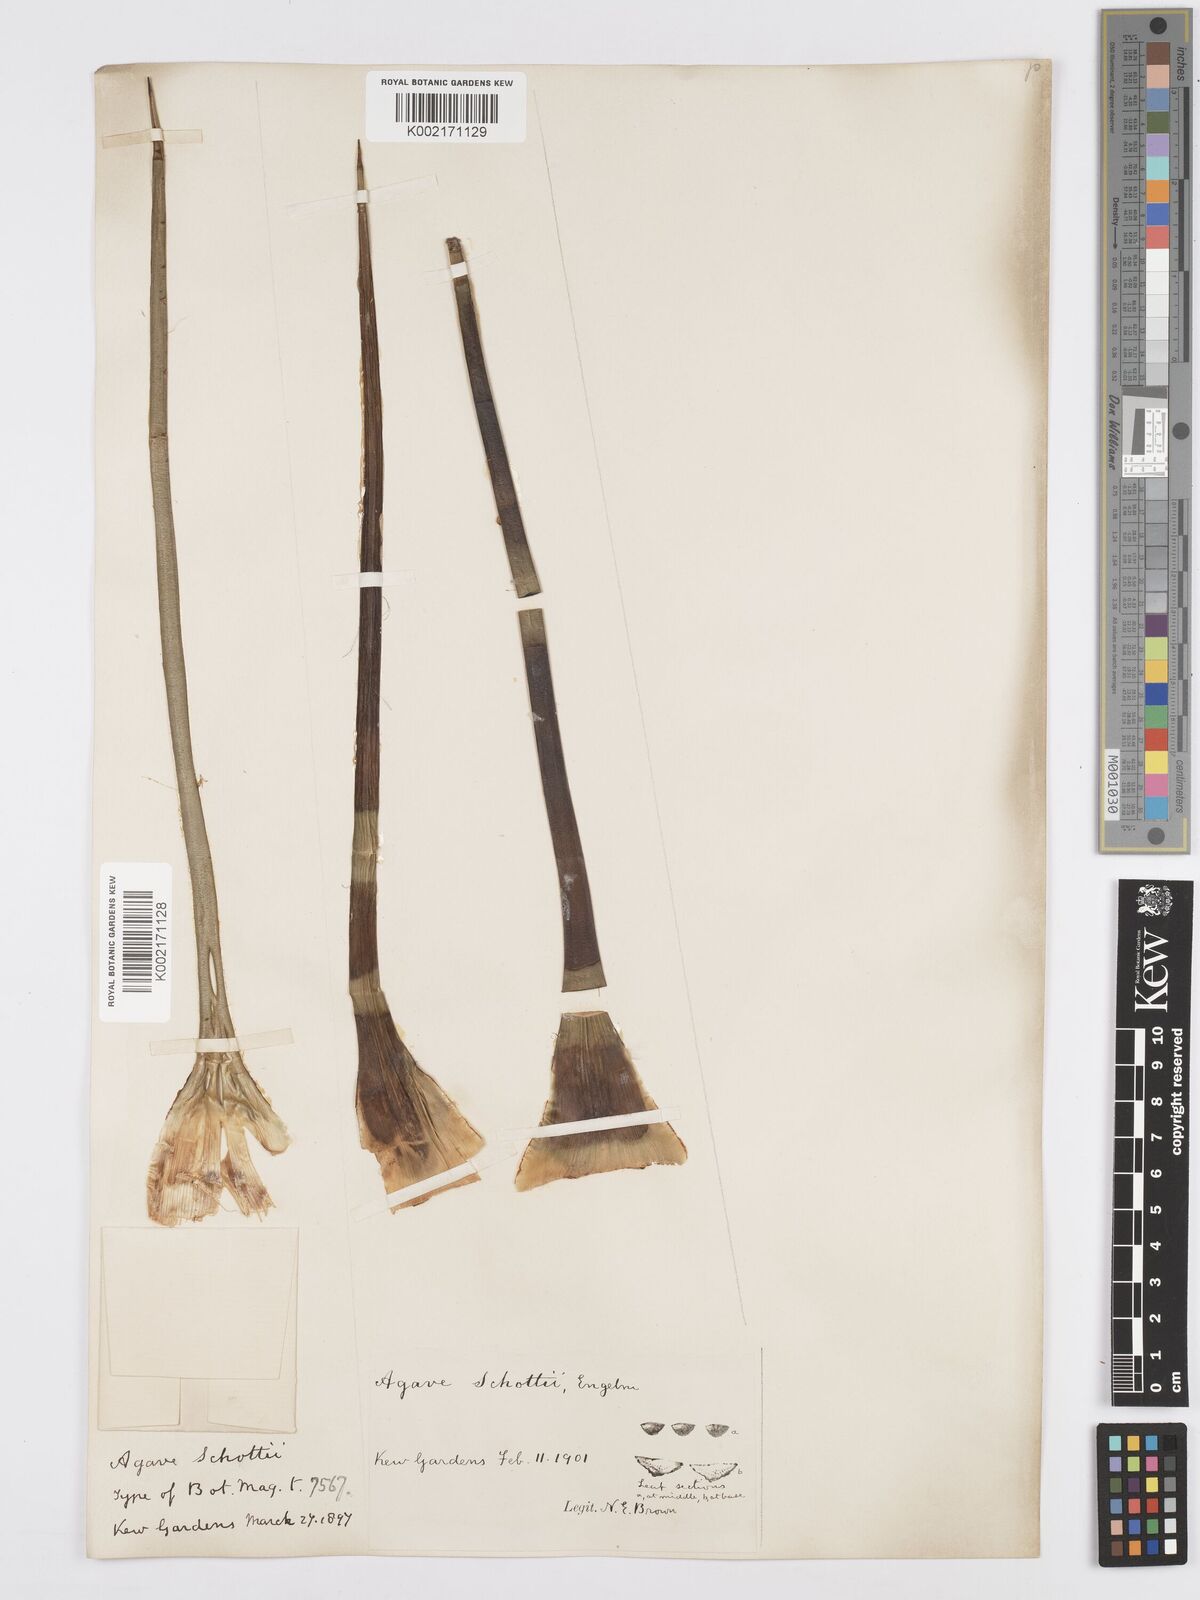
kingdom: Plantae
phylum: Tracheophyta
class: Liliopsida
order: Asparagales
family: Asparagaceae
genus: Agave
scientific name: Agave schottii
